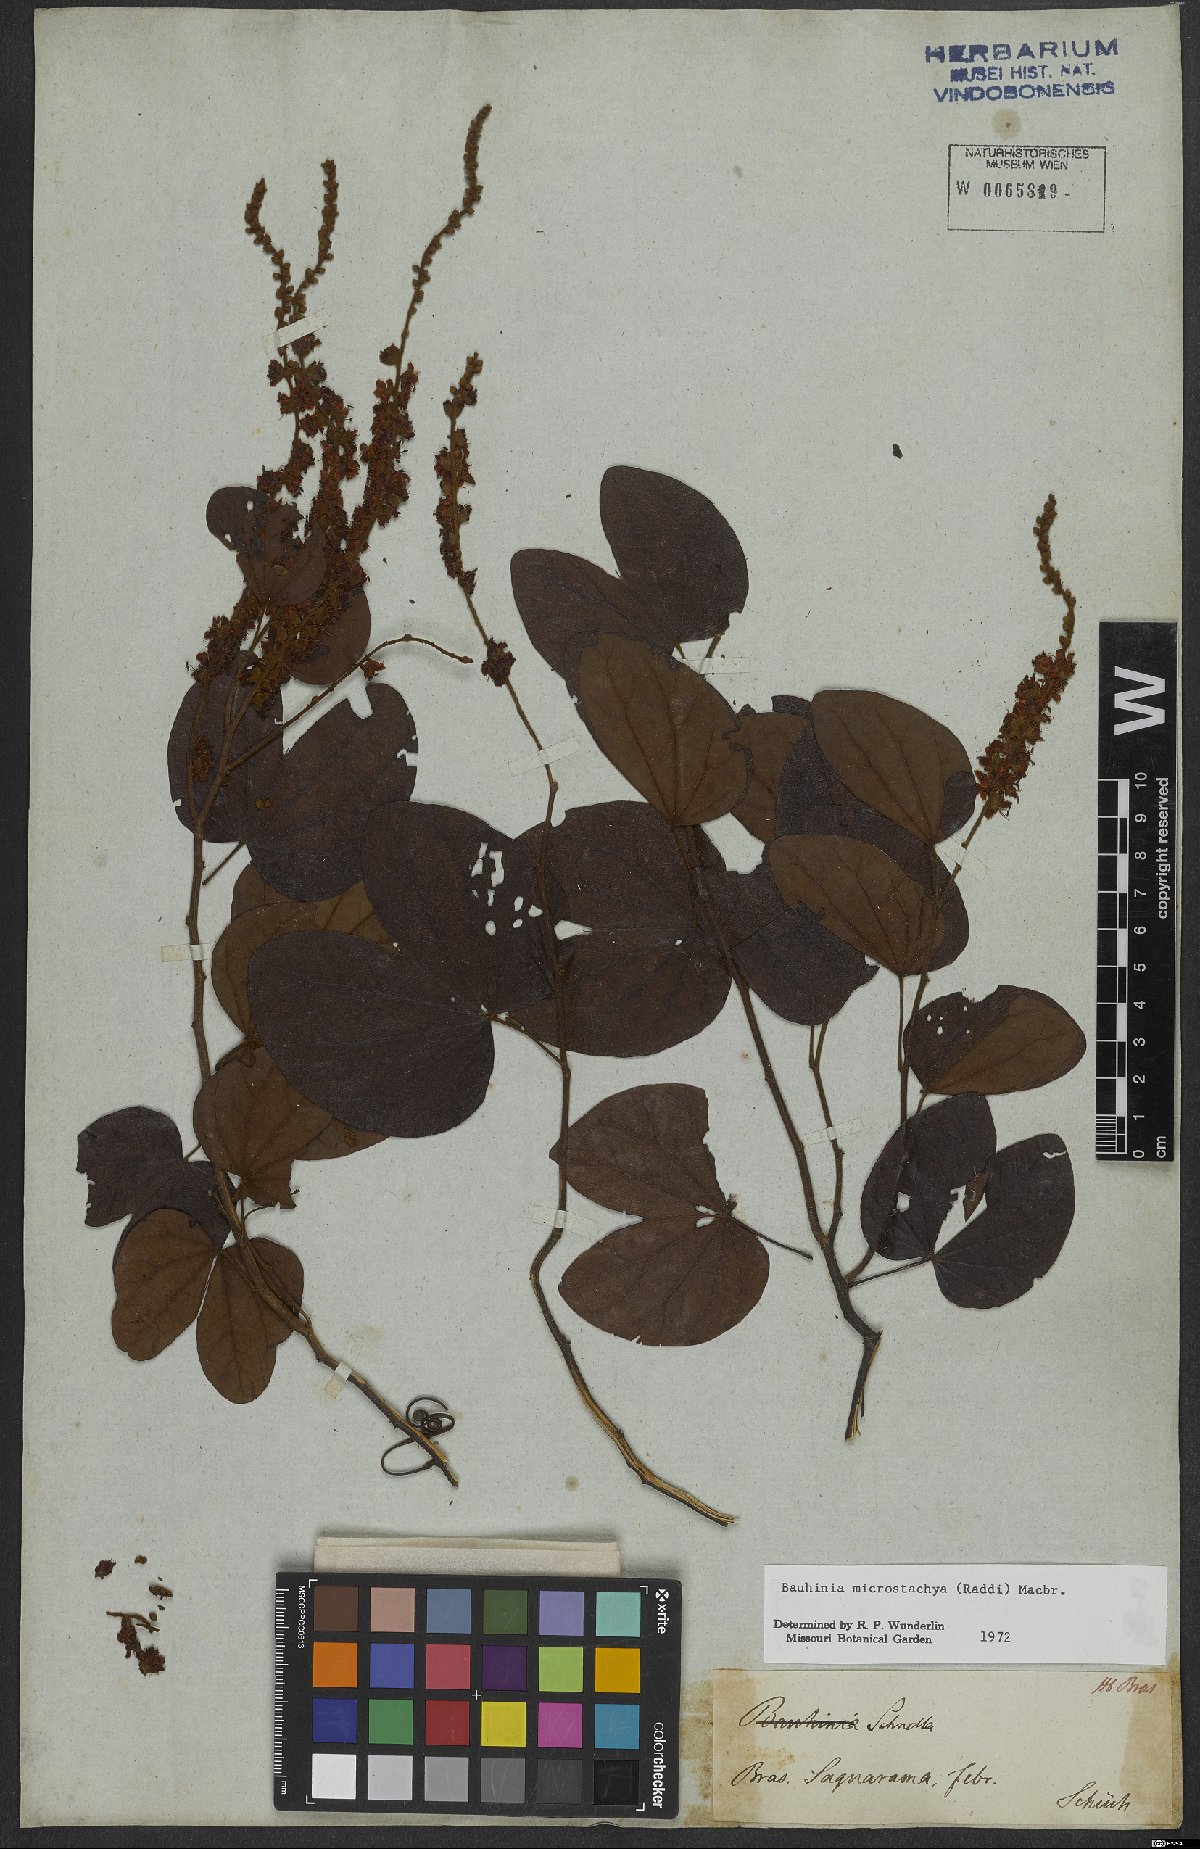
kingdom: Plantae
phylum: Tracheophyta
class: Magnoliopsida
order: Fabales
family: Fabaceae
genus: Schnella
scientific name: Schnella microstachya
